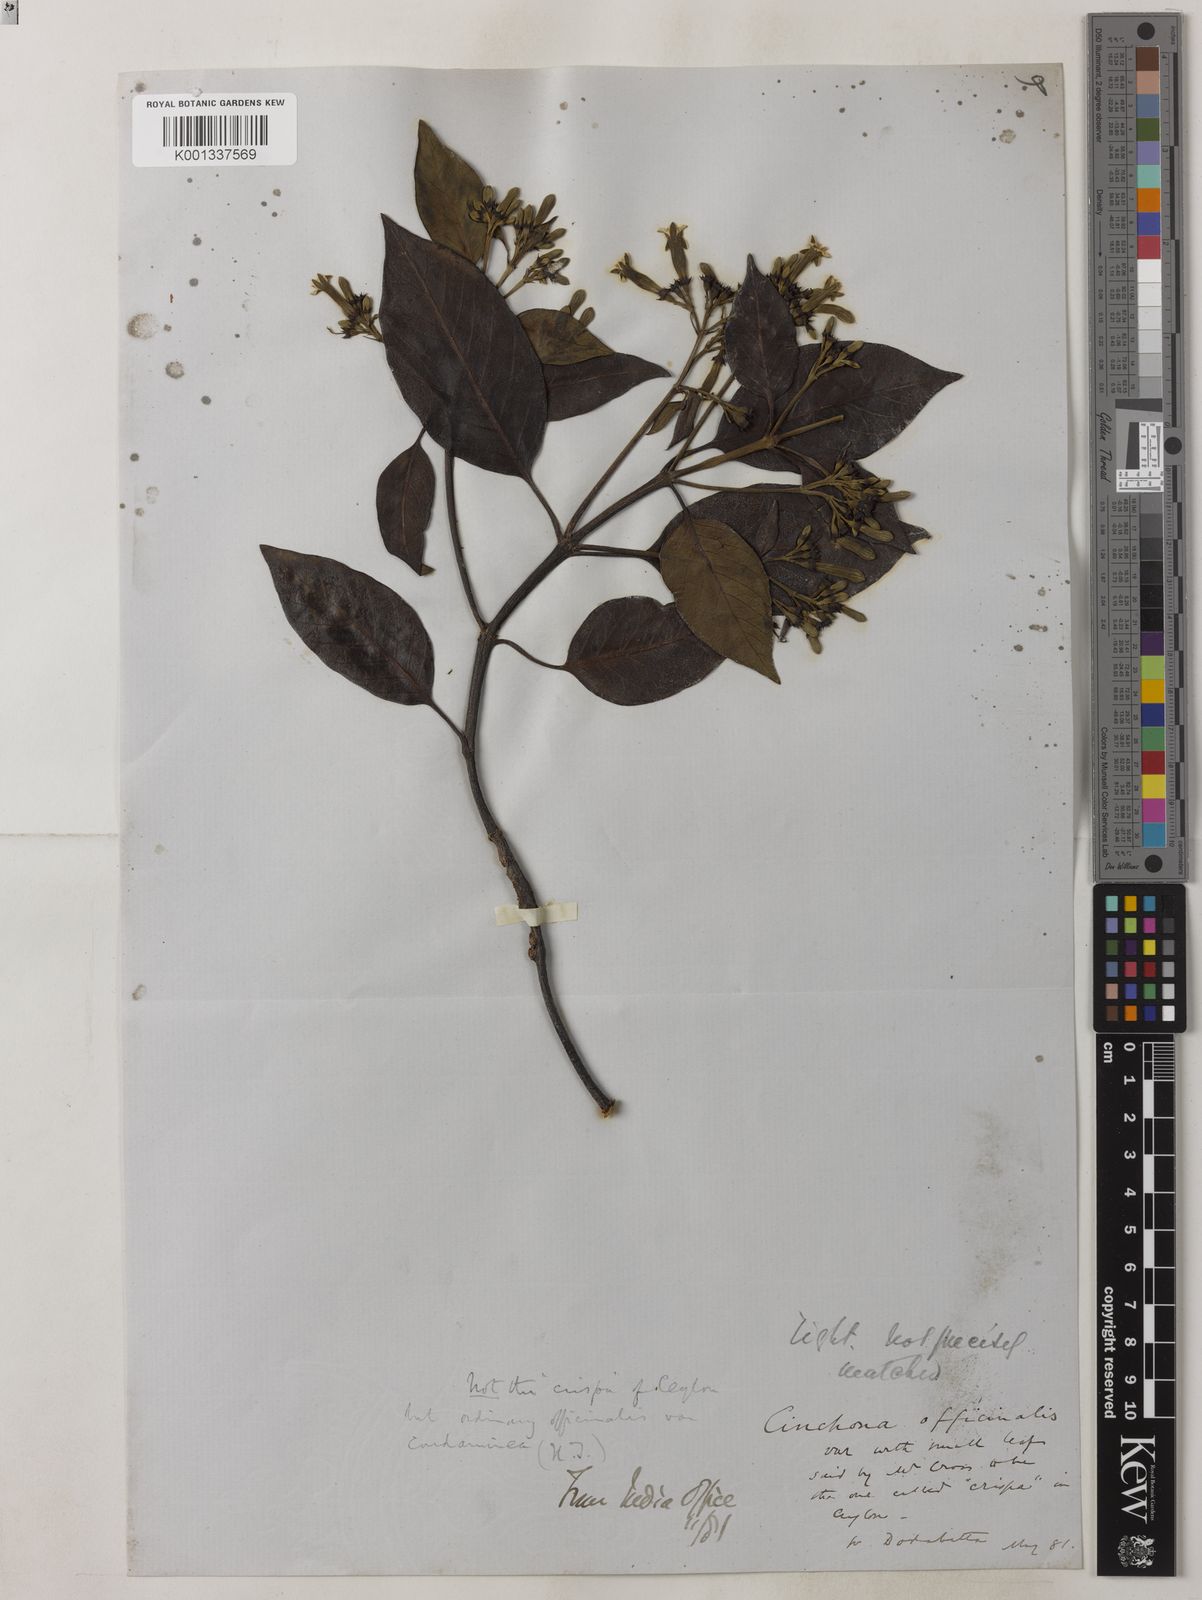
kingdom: Plantae
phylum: Tracheophyta
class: Magnoliopsida
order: Gentianales
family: Rubiaceae
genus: Cinchona
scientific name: Cinchona officinalis
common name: Lojabark
